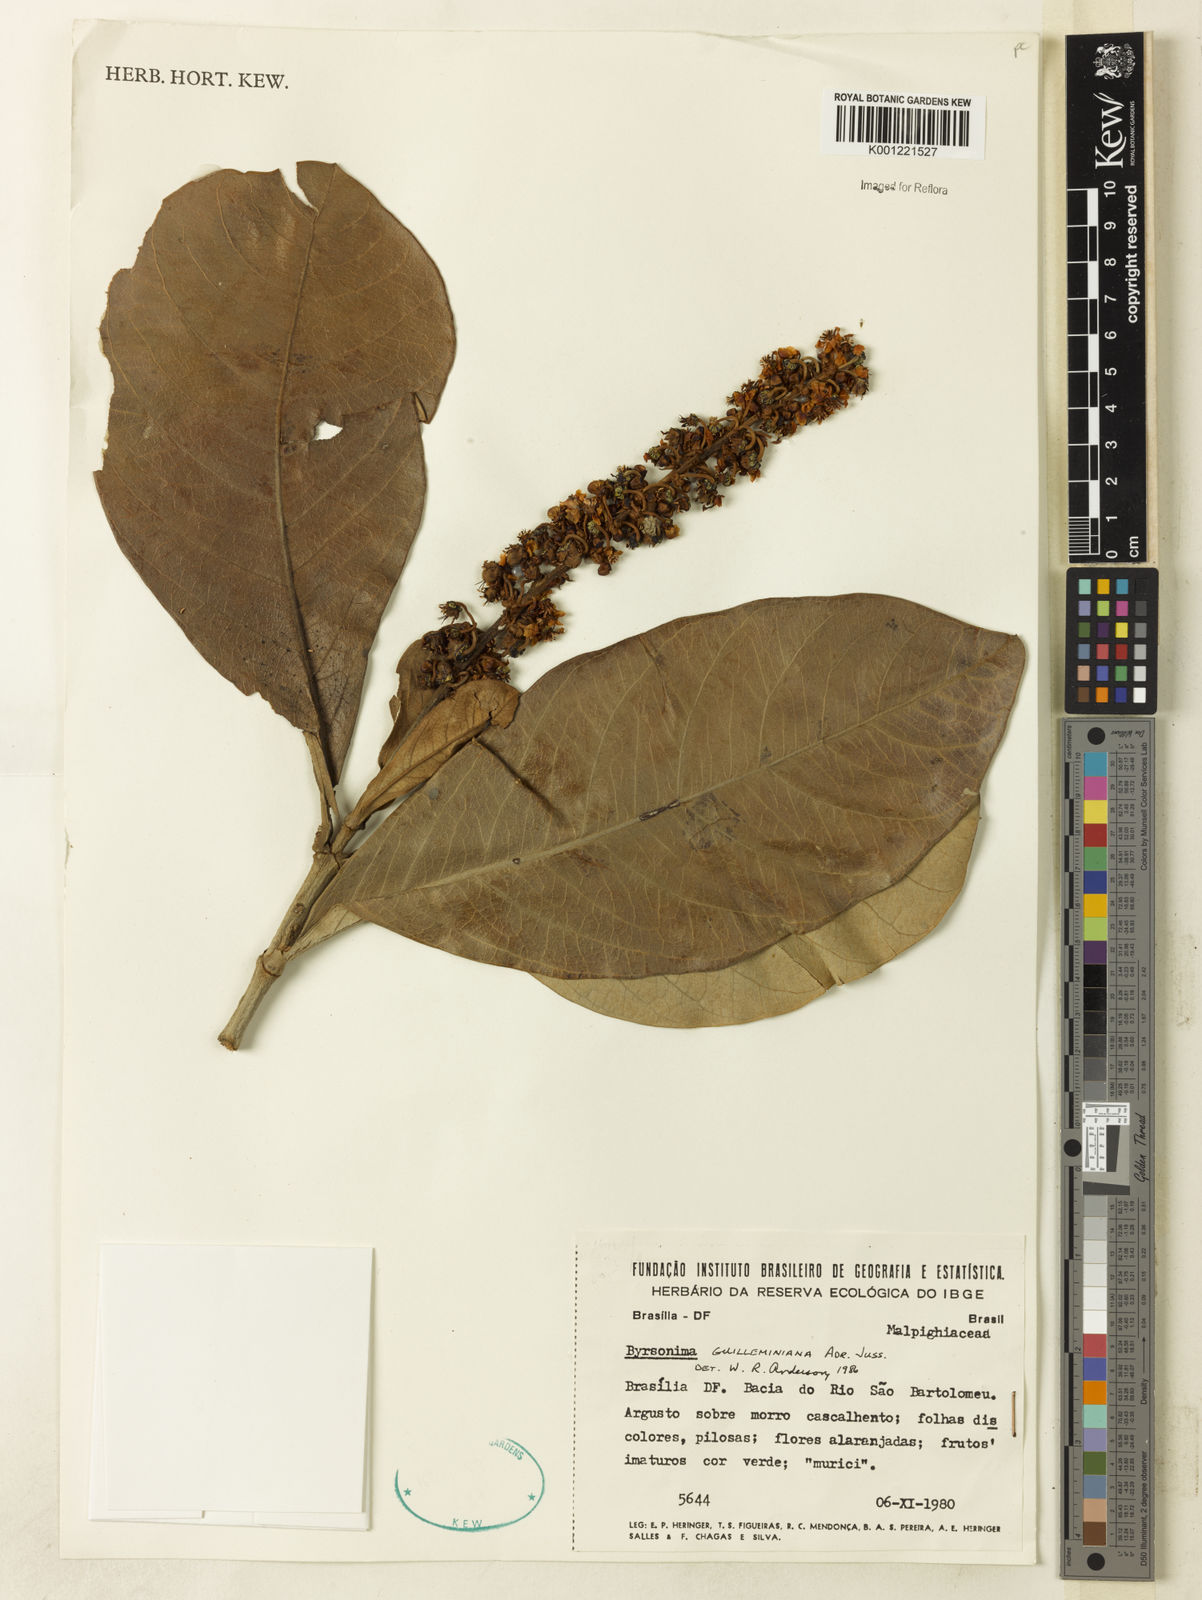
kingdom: Plantae
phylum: Tracheophyta
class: Magnoliopsida
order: Malpighiales
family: Malpighiaceae
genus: Byrsonima
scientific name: Byrsonima guilleminiana
